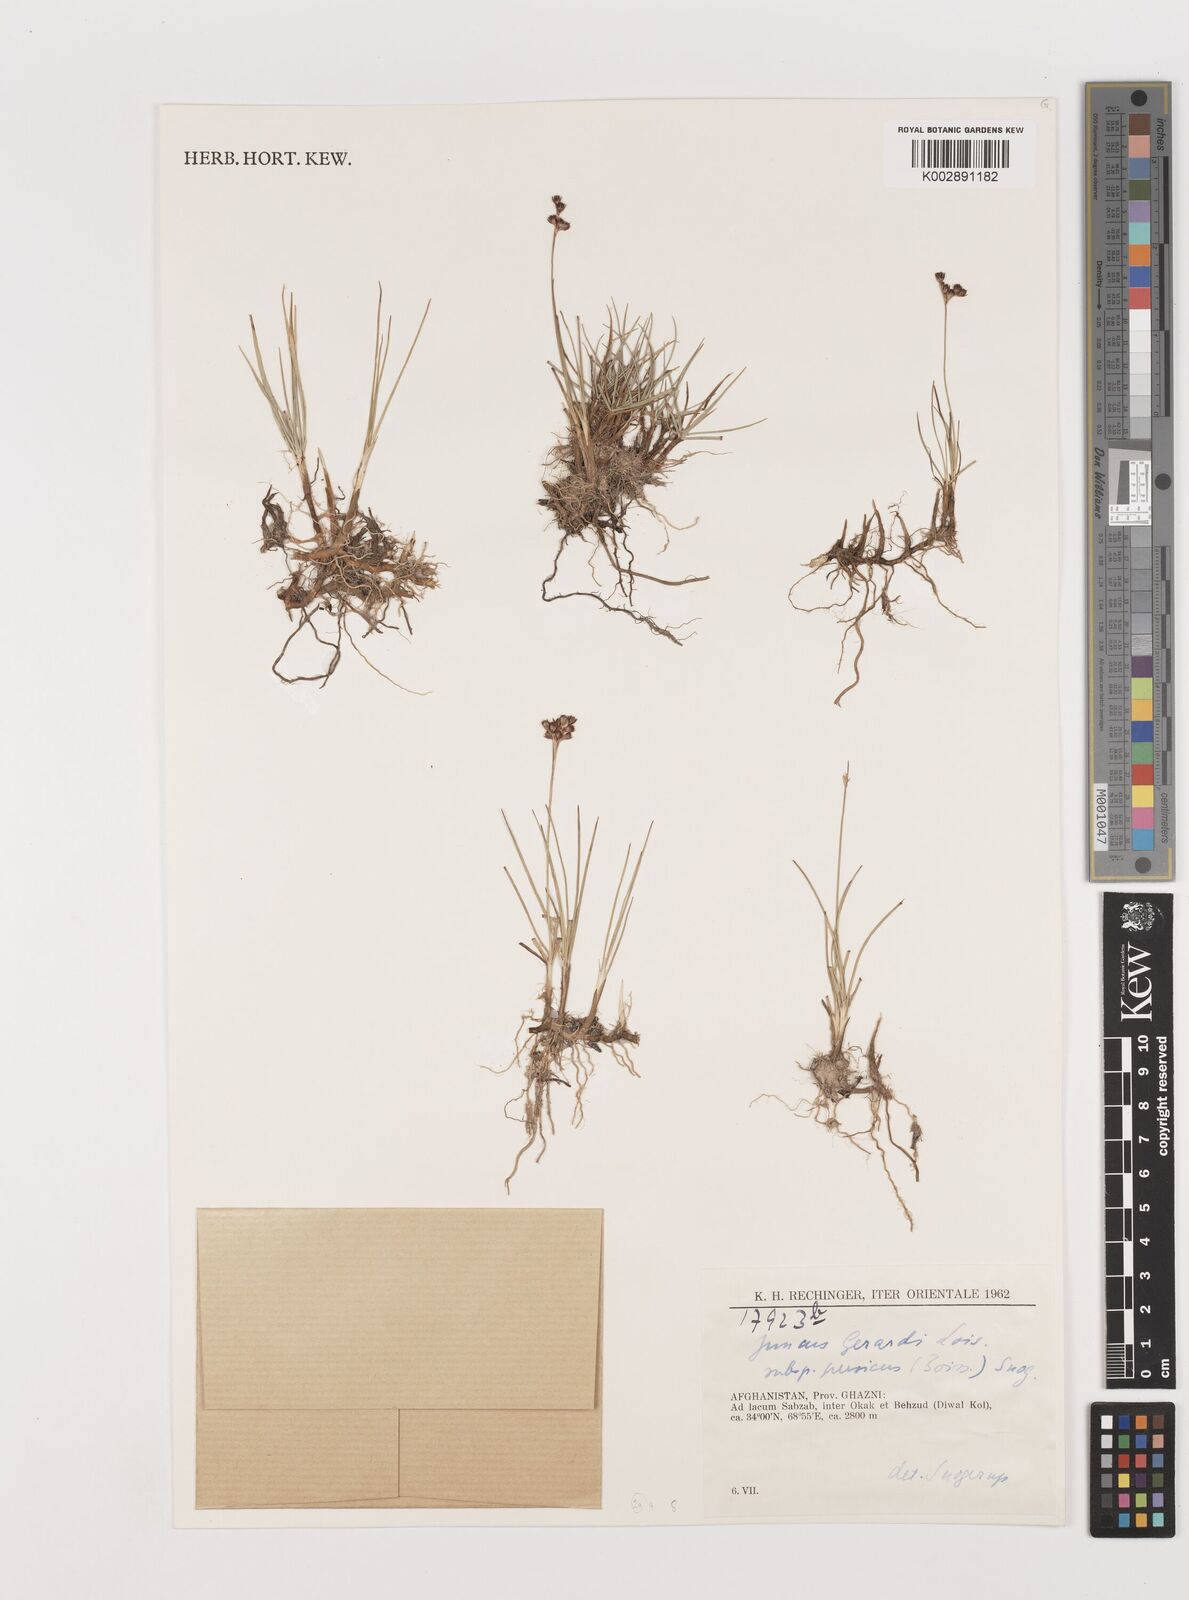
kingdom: Plantae
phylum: Tracheophyta
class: Liliopsida
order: Poales
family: Juncaceae
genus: Juncus
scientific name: Juncus persicus
